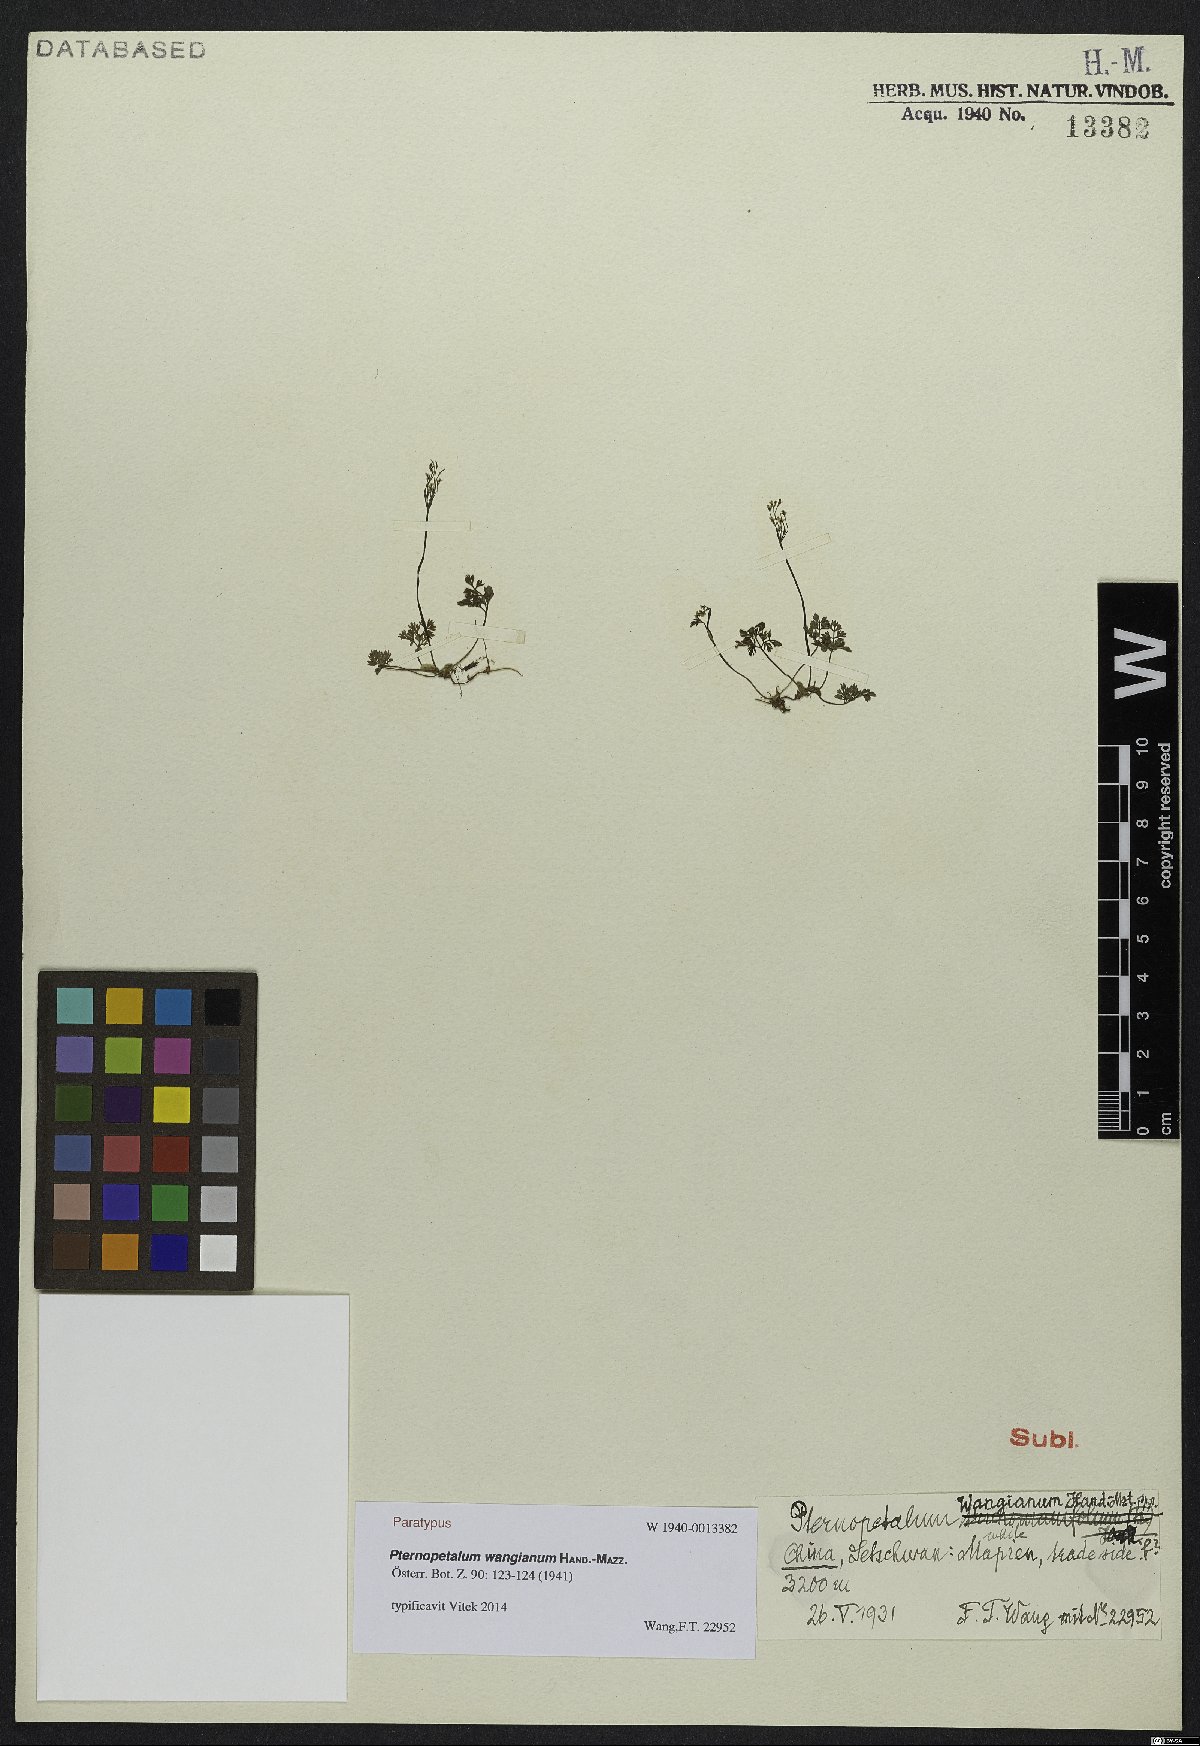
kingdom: Plantae
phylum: Tracheophyta
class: Magnoliopsida
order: Apiales
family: Apiaceae
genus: Pternopetalum
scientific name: Pternopetalum gracilimum
